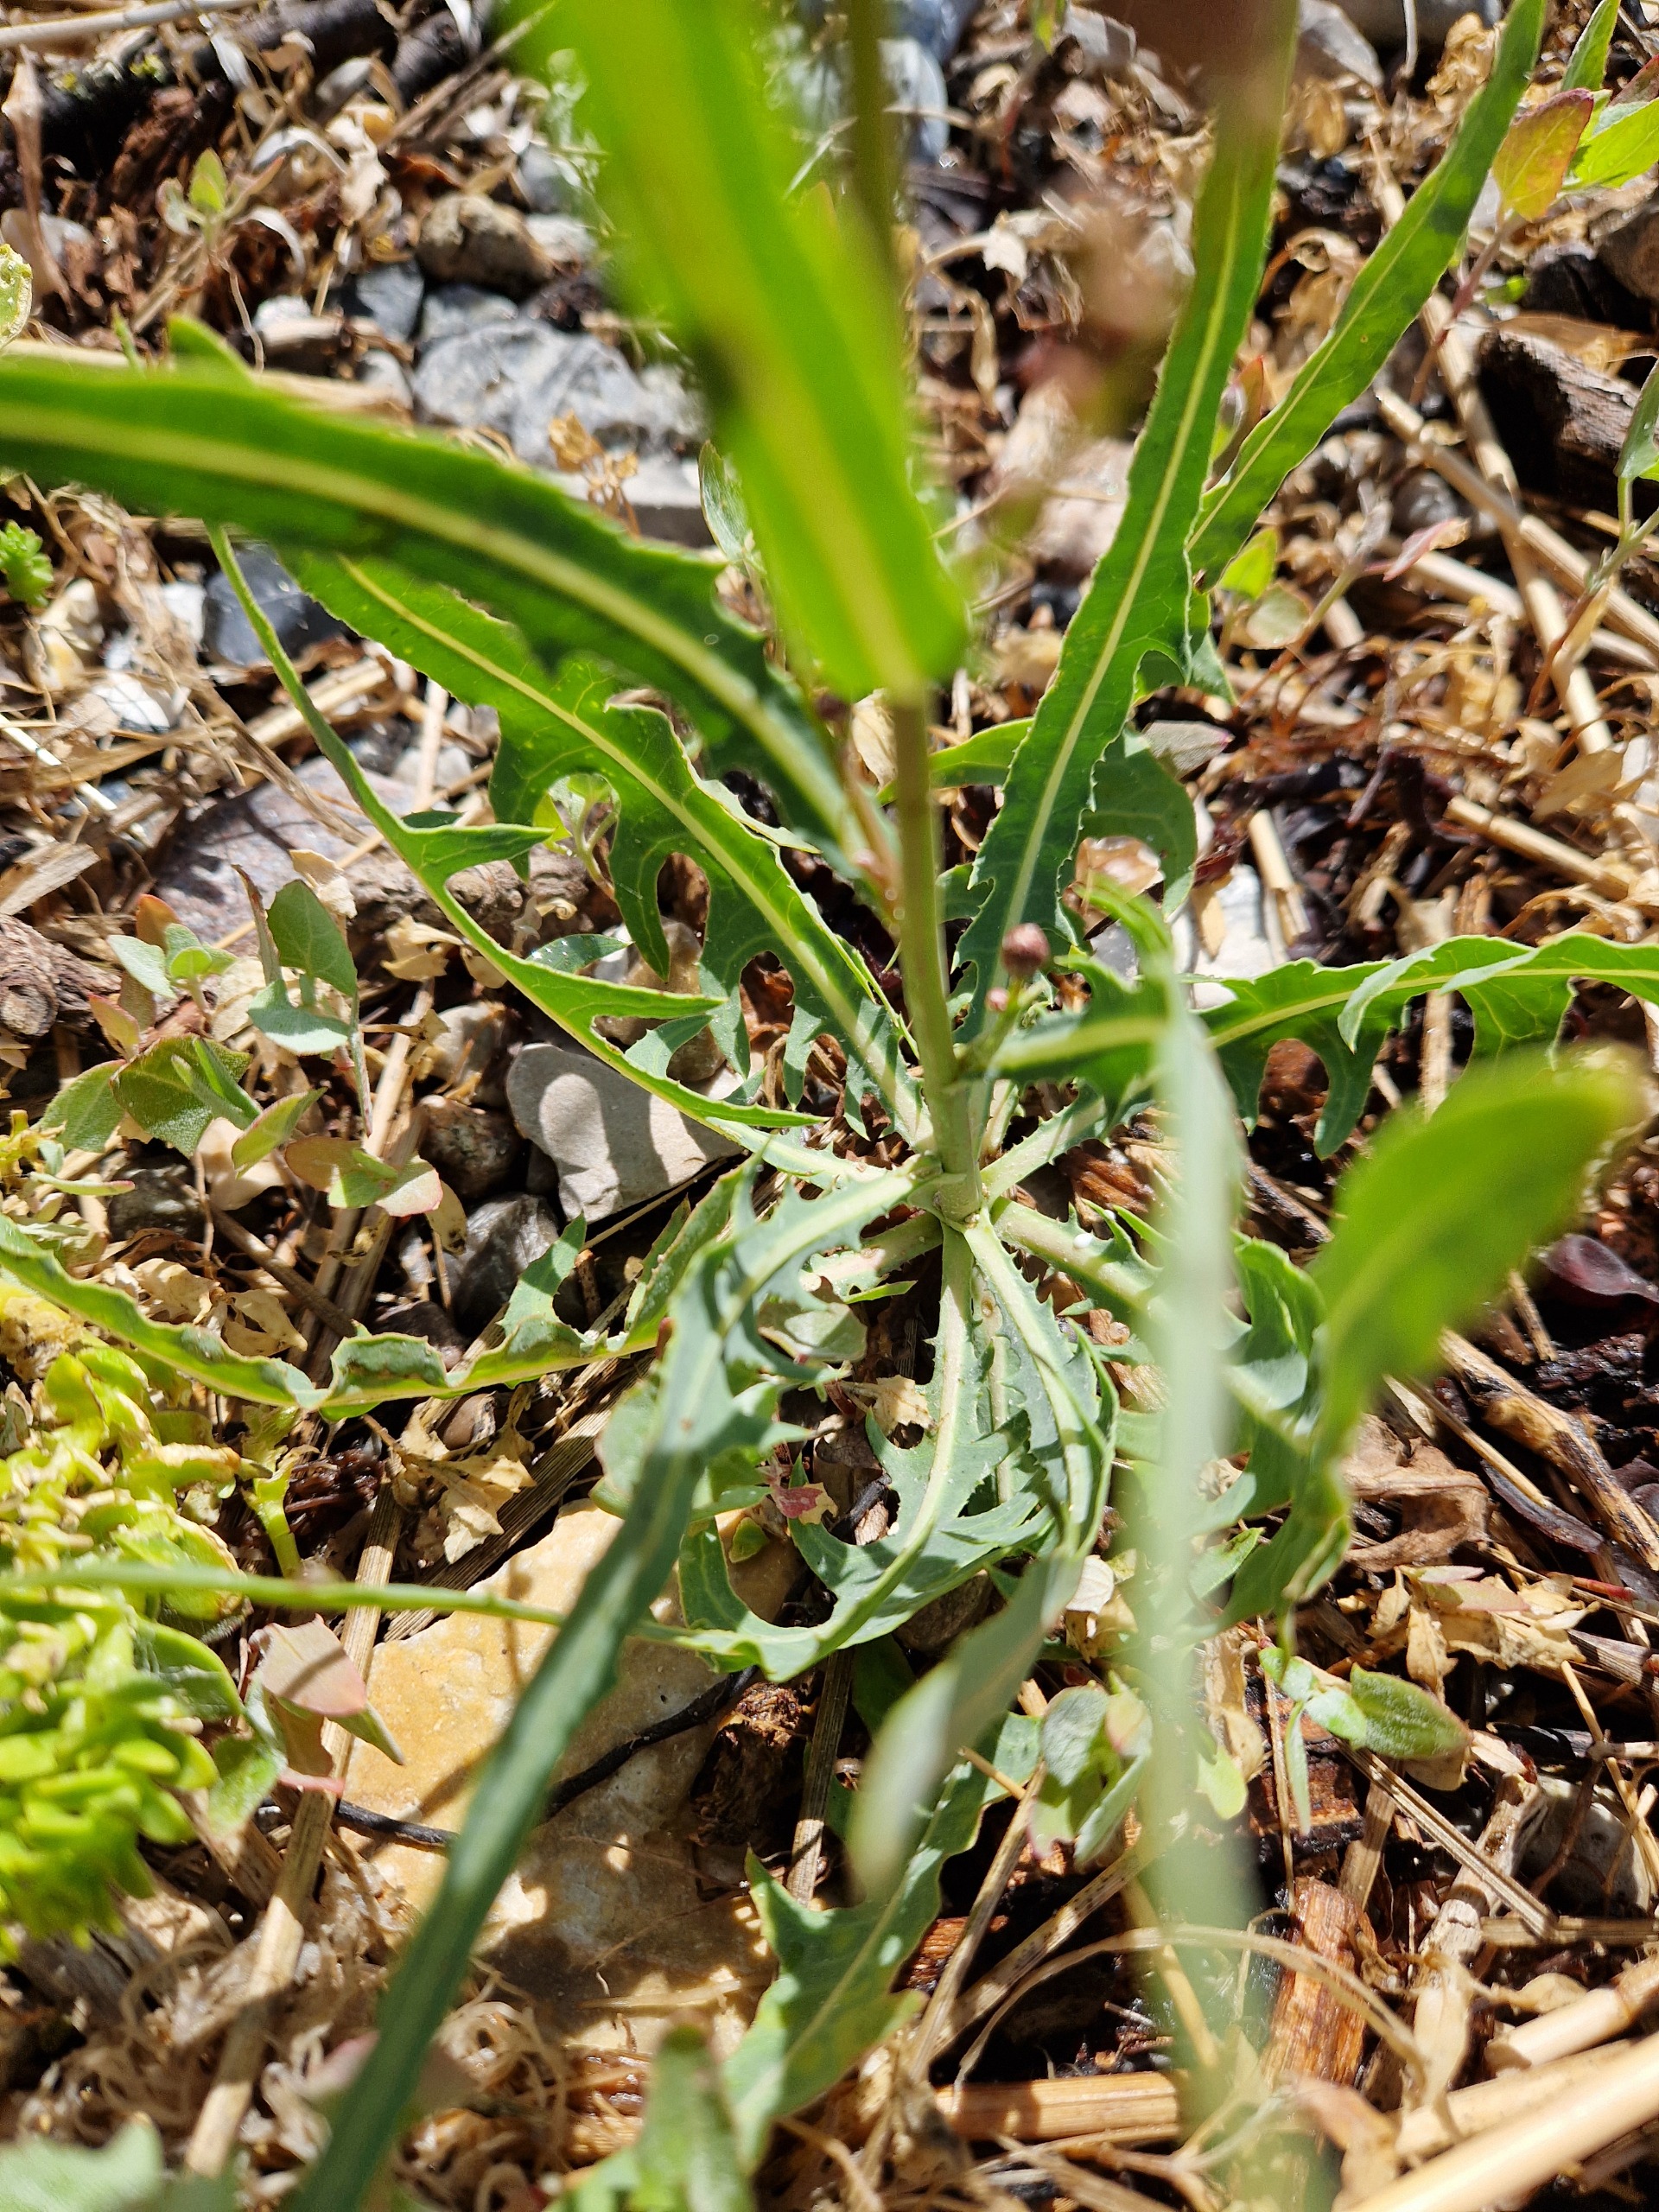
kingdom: Plantae
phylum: Tracheophyta
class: Magnoliopsida
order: Asterales
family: Asteraceae
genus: Lactuca
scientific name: Lactuca tatarica
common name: Strand-salat
